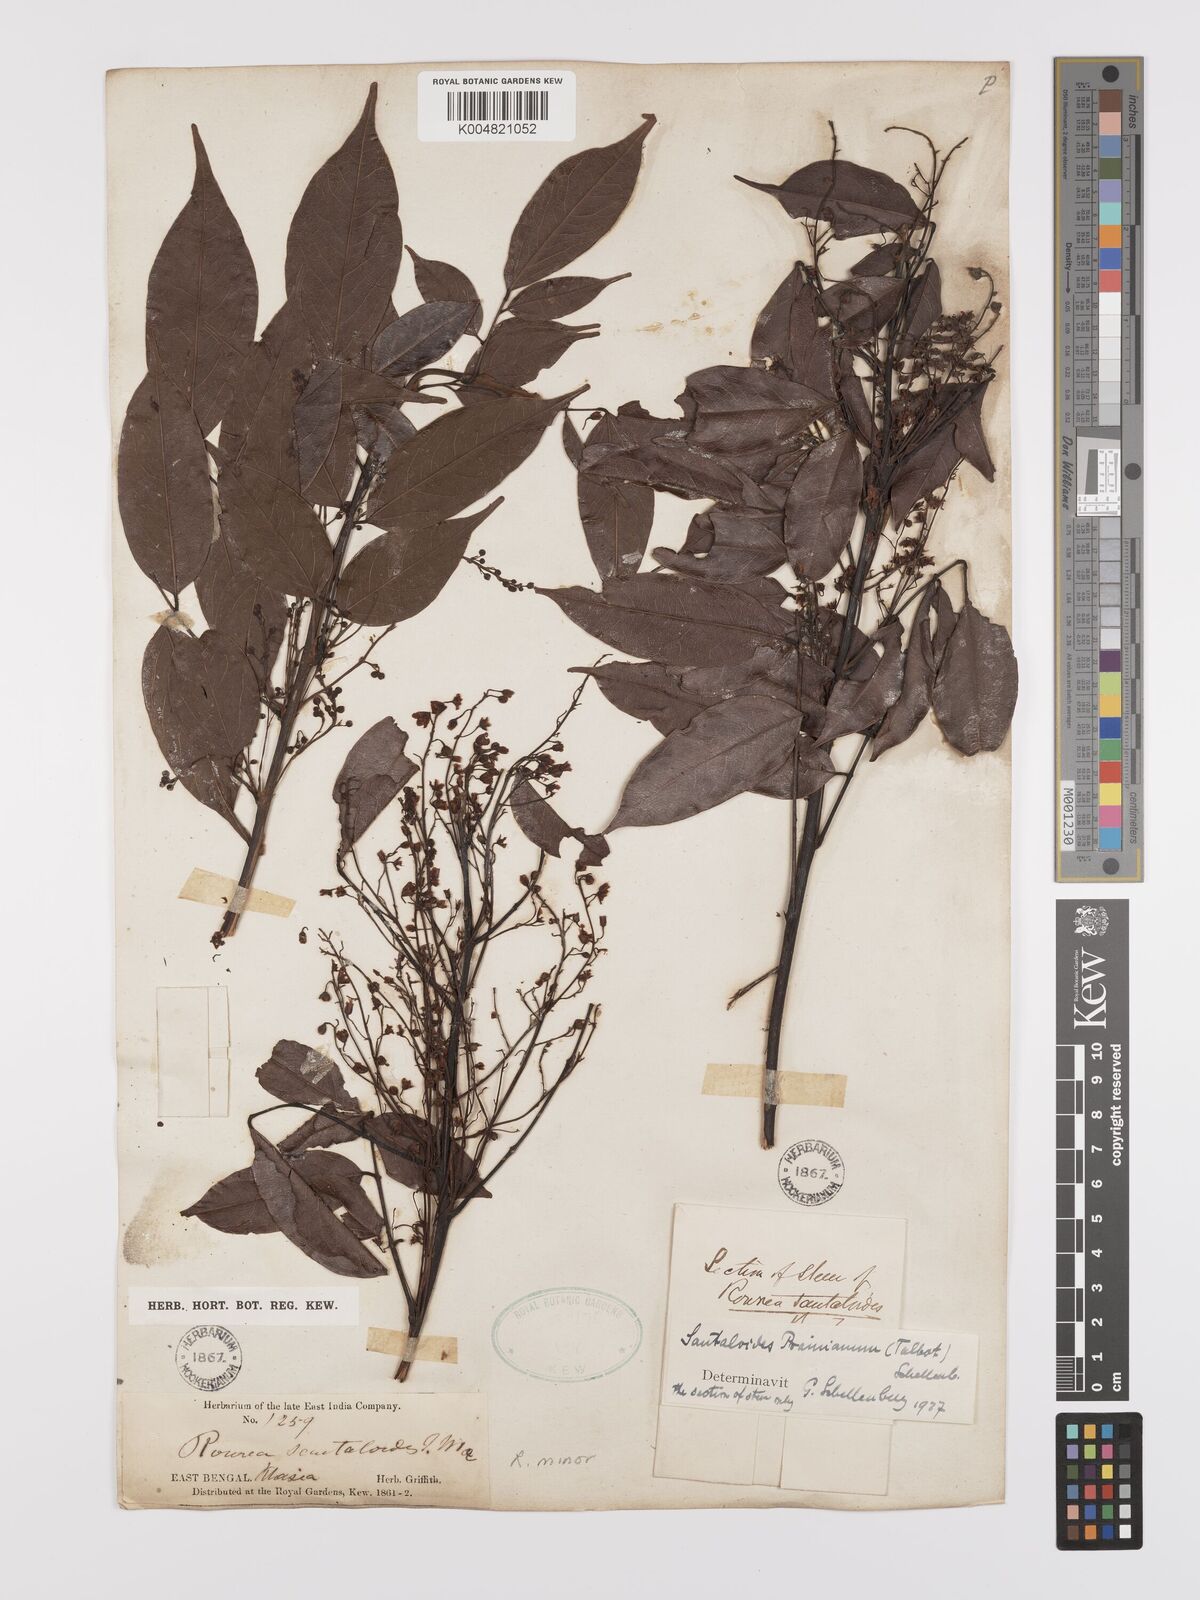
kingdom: Plantae
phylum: Tracheophyta
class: Magnoliopsida
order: Oxalidales
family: Connaraceae
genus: Rourea
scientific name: Rourea prainiana
